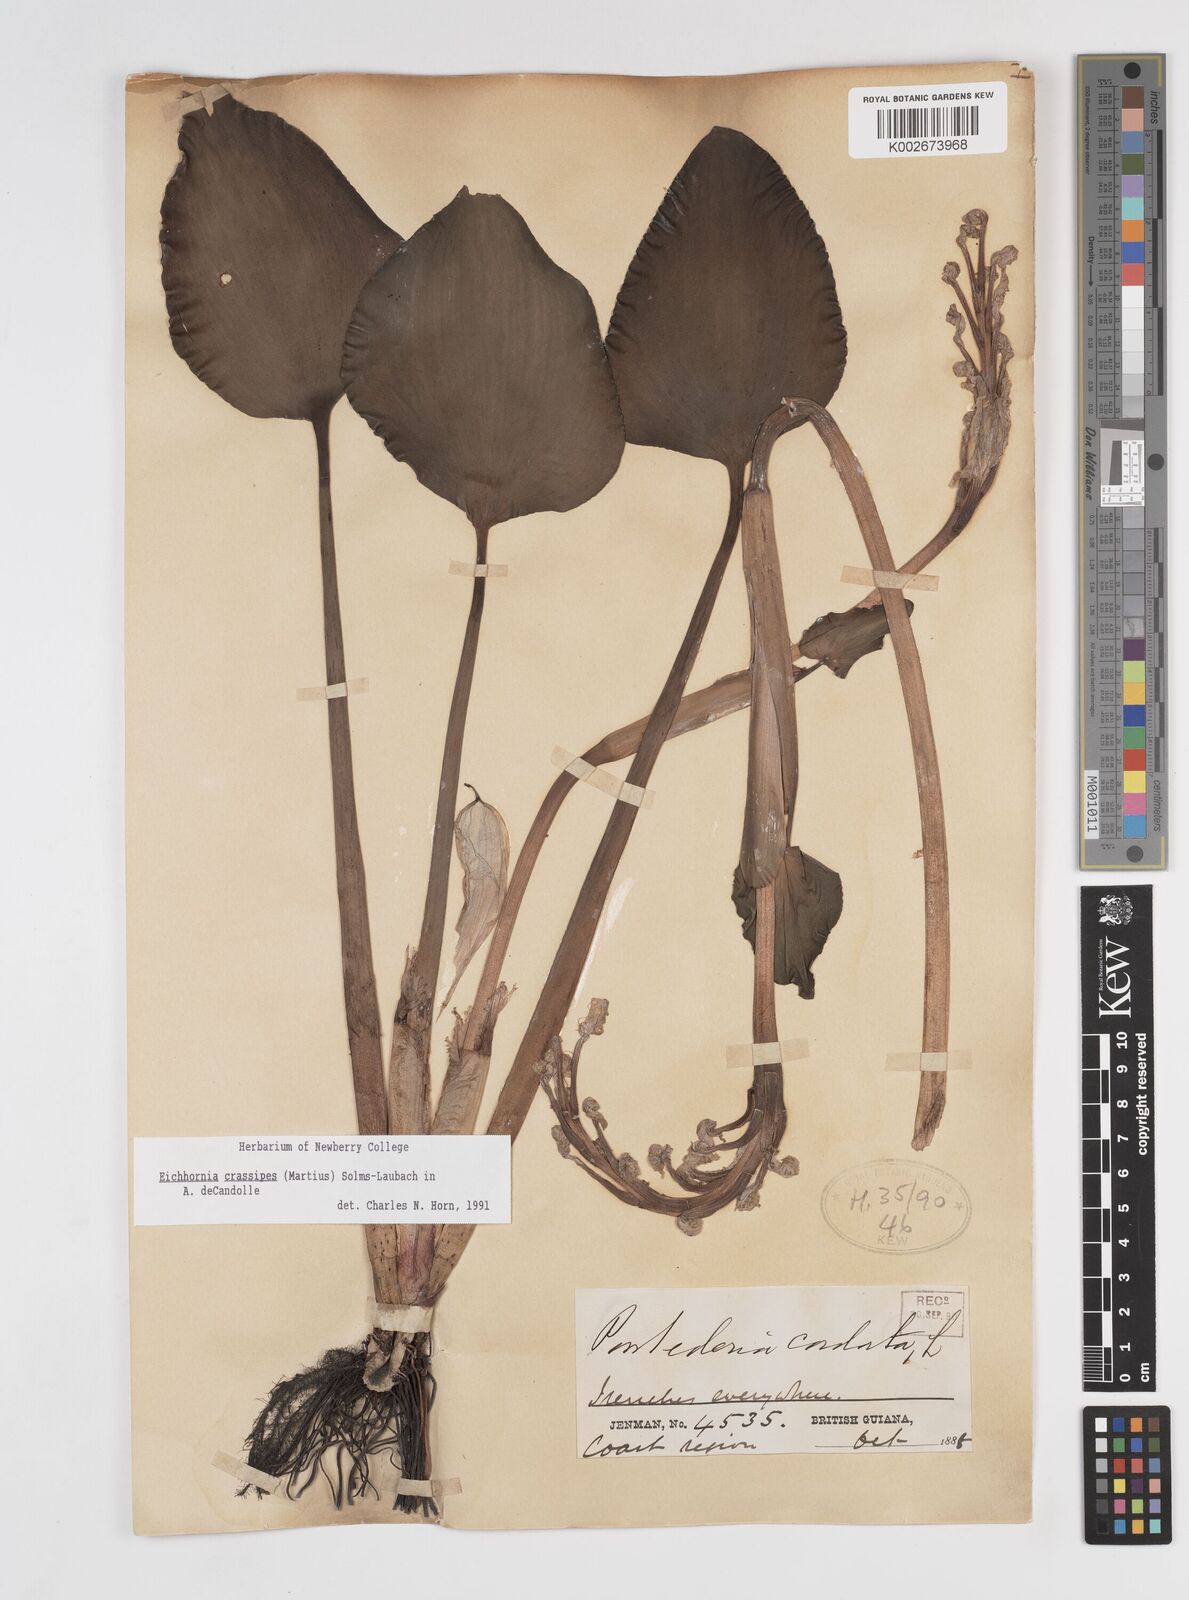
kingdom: Plantae
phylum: Tracheophyta
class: Liliopsida
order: Commelinales
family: Pontederiaceae
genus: Pontederia
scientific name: Pontederia crassipes
